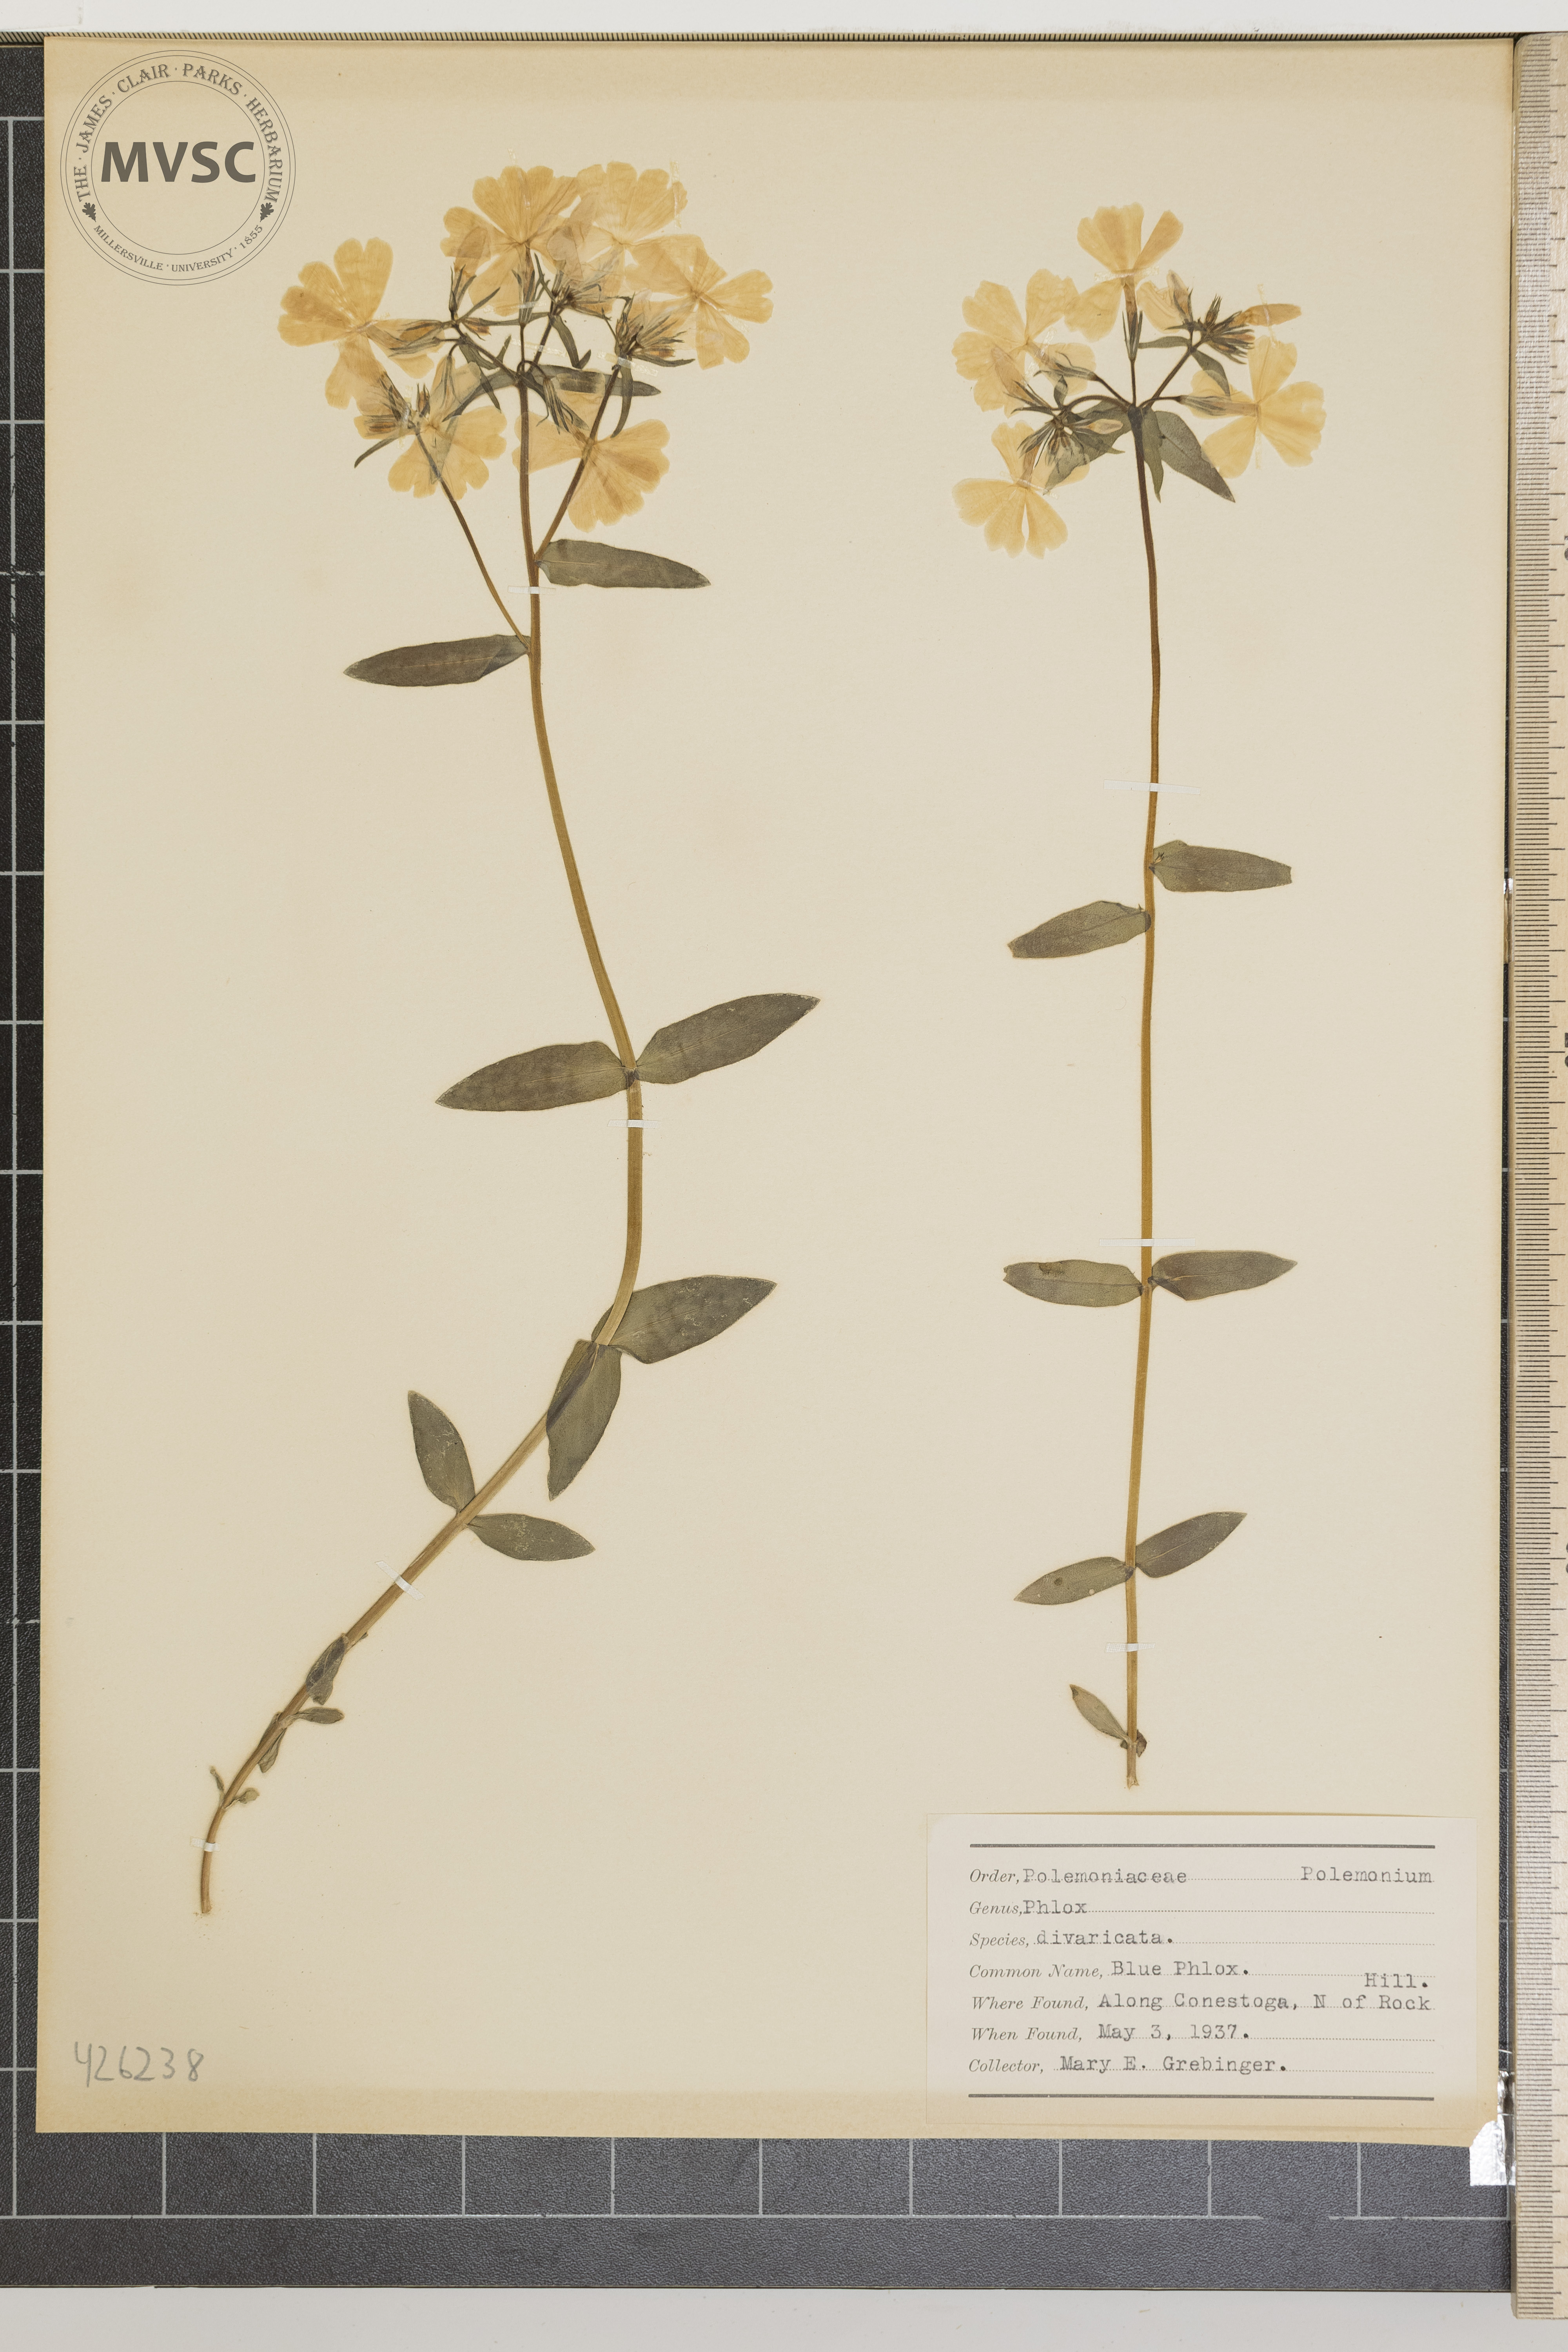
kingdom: Plantae
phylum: Tracheophyta
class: Magnoliopsida
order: Ericales
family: Polemoniaceae
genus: Phlox
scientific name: Phlox divaricata
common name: Blue Phlox
